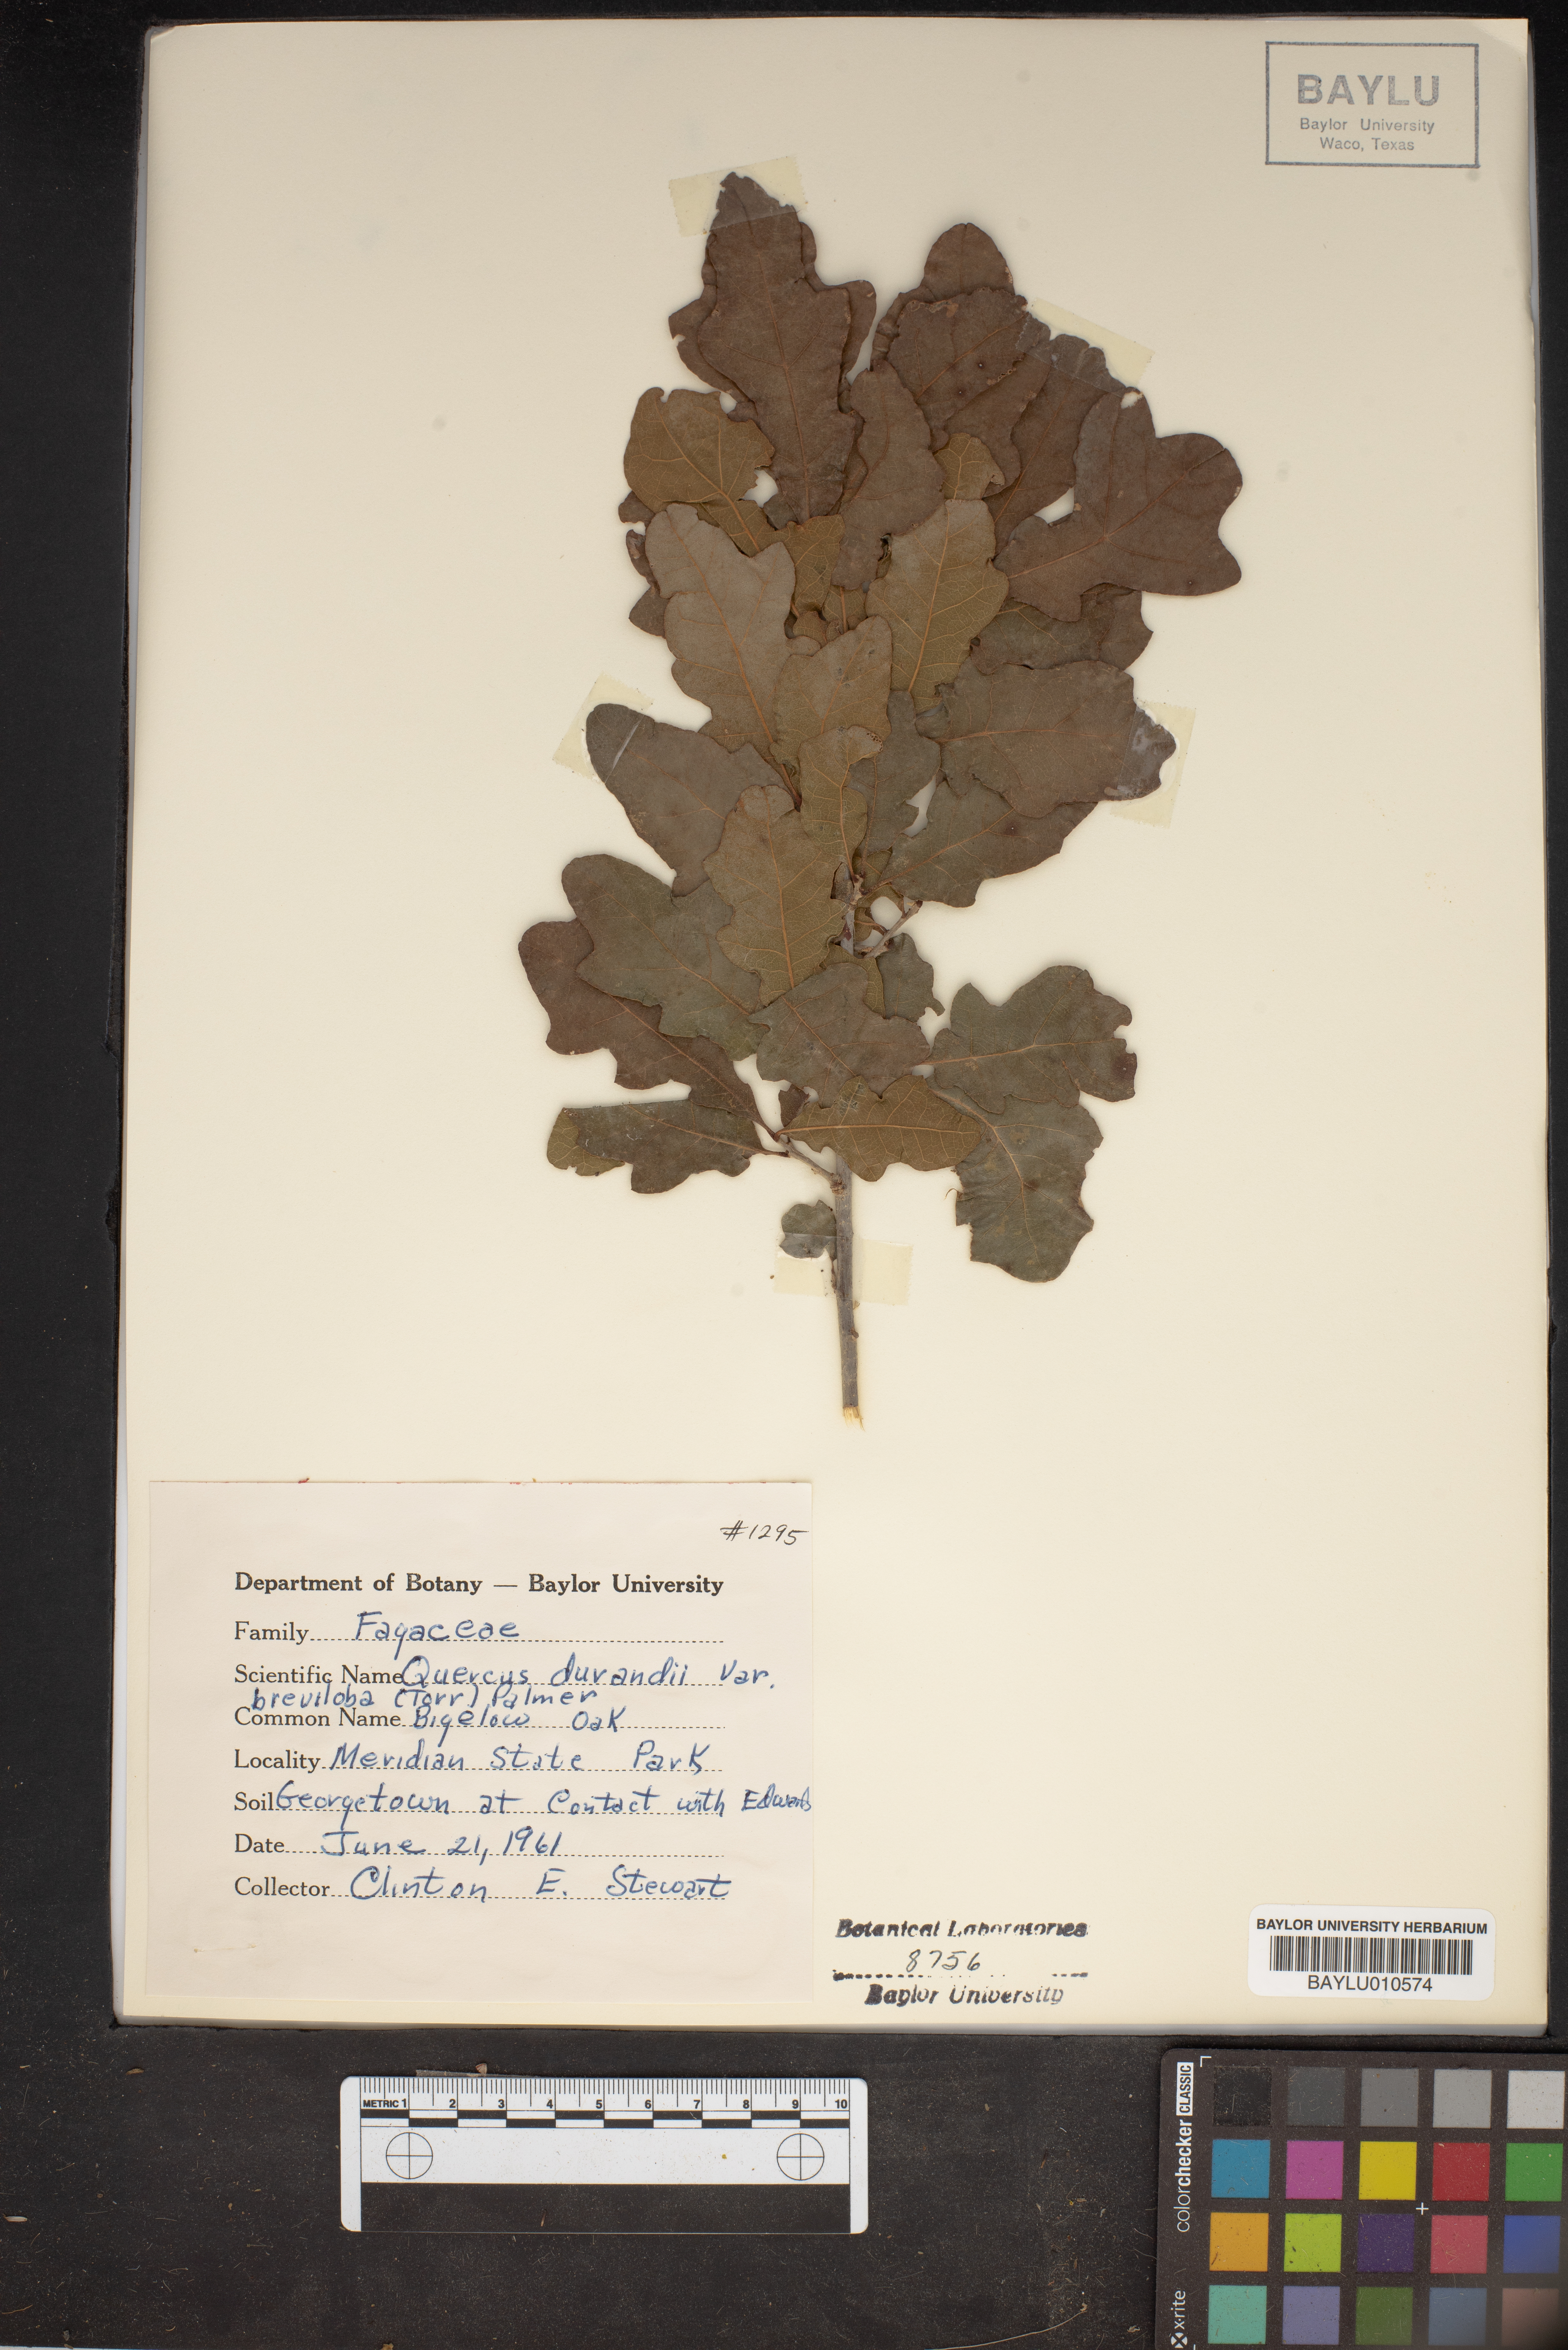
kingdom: Plantae
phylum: Tracheophyta
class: Magnoliopsida
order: Fagales
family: Fagaceae
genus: Quercus
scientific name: Quercus sinuata
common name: Durand oak
